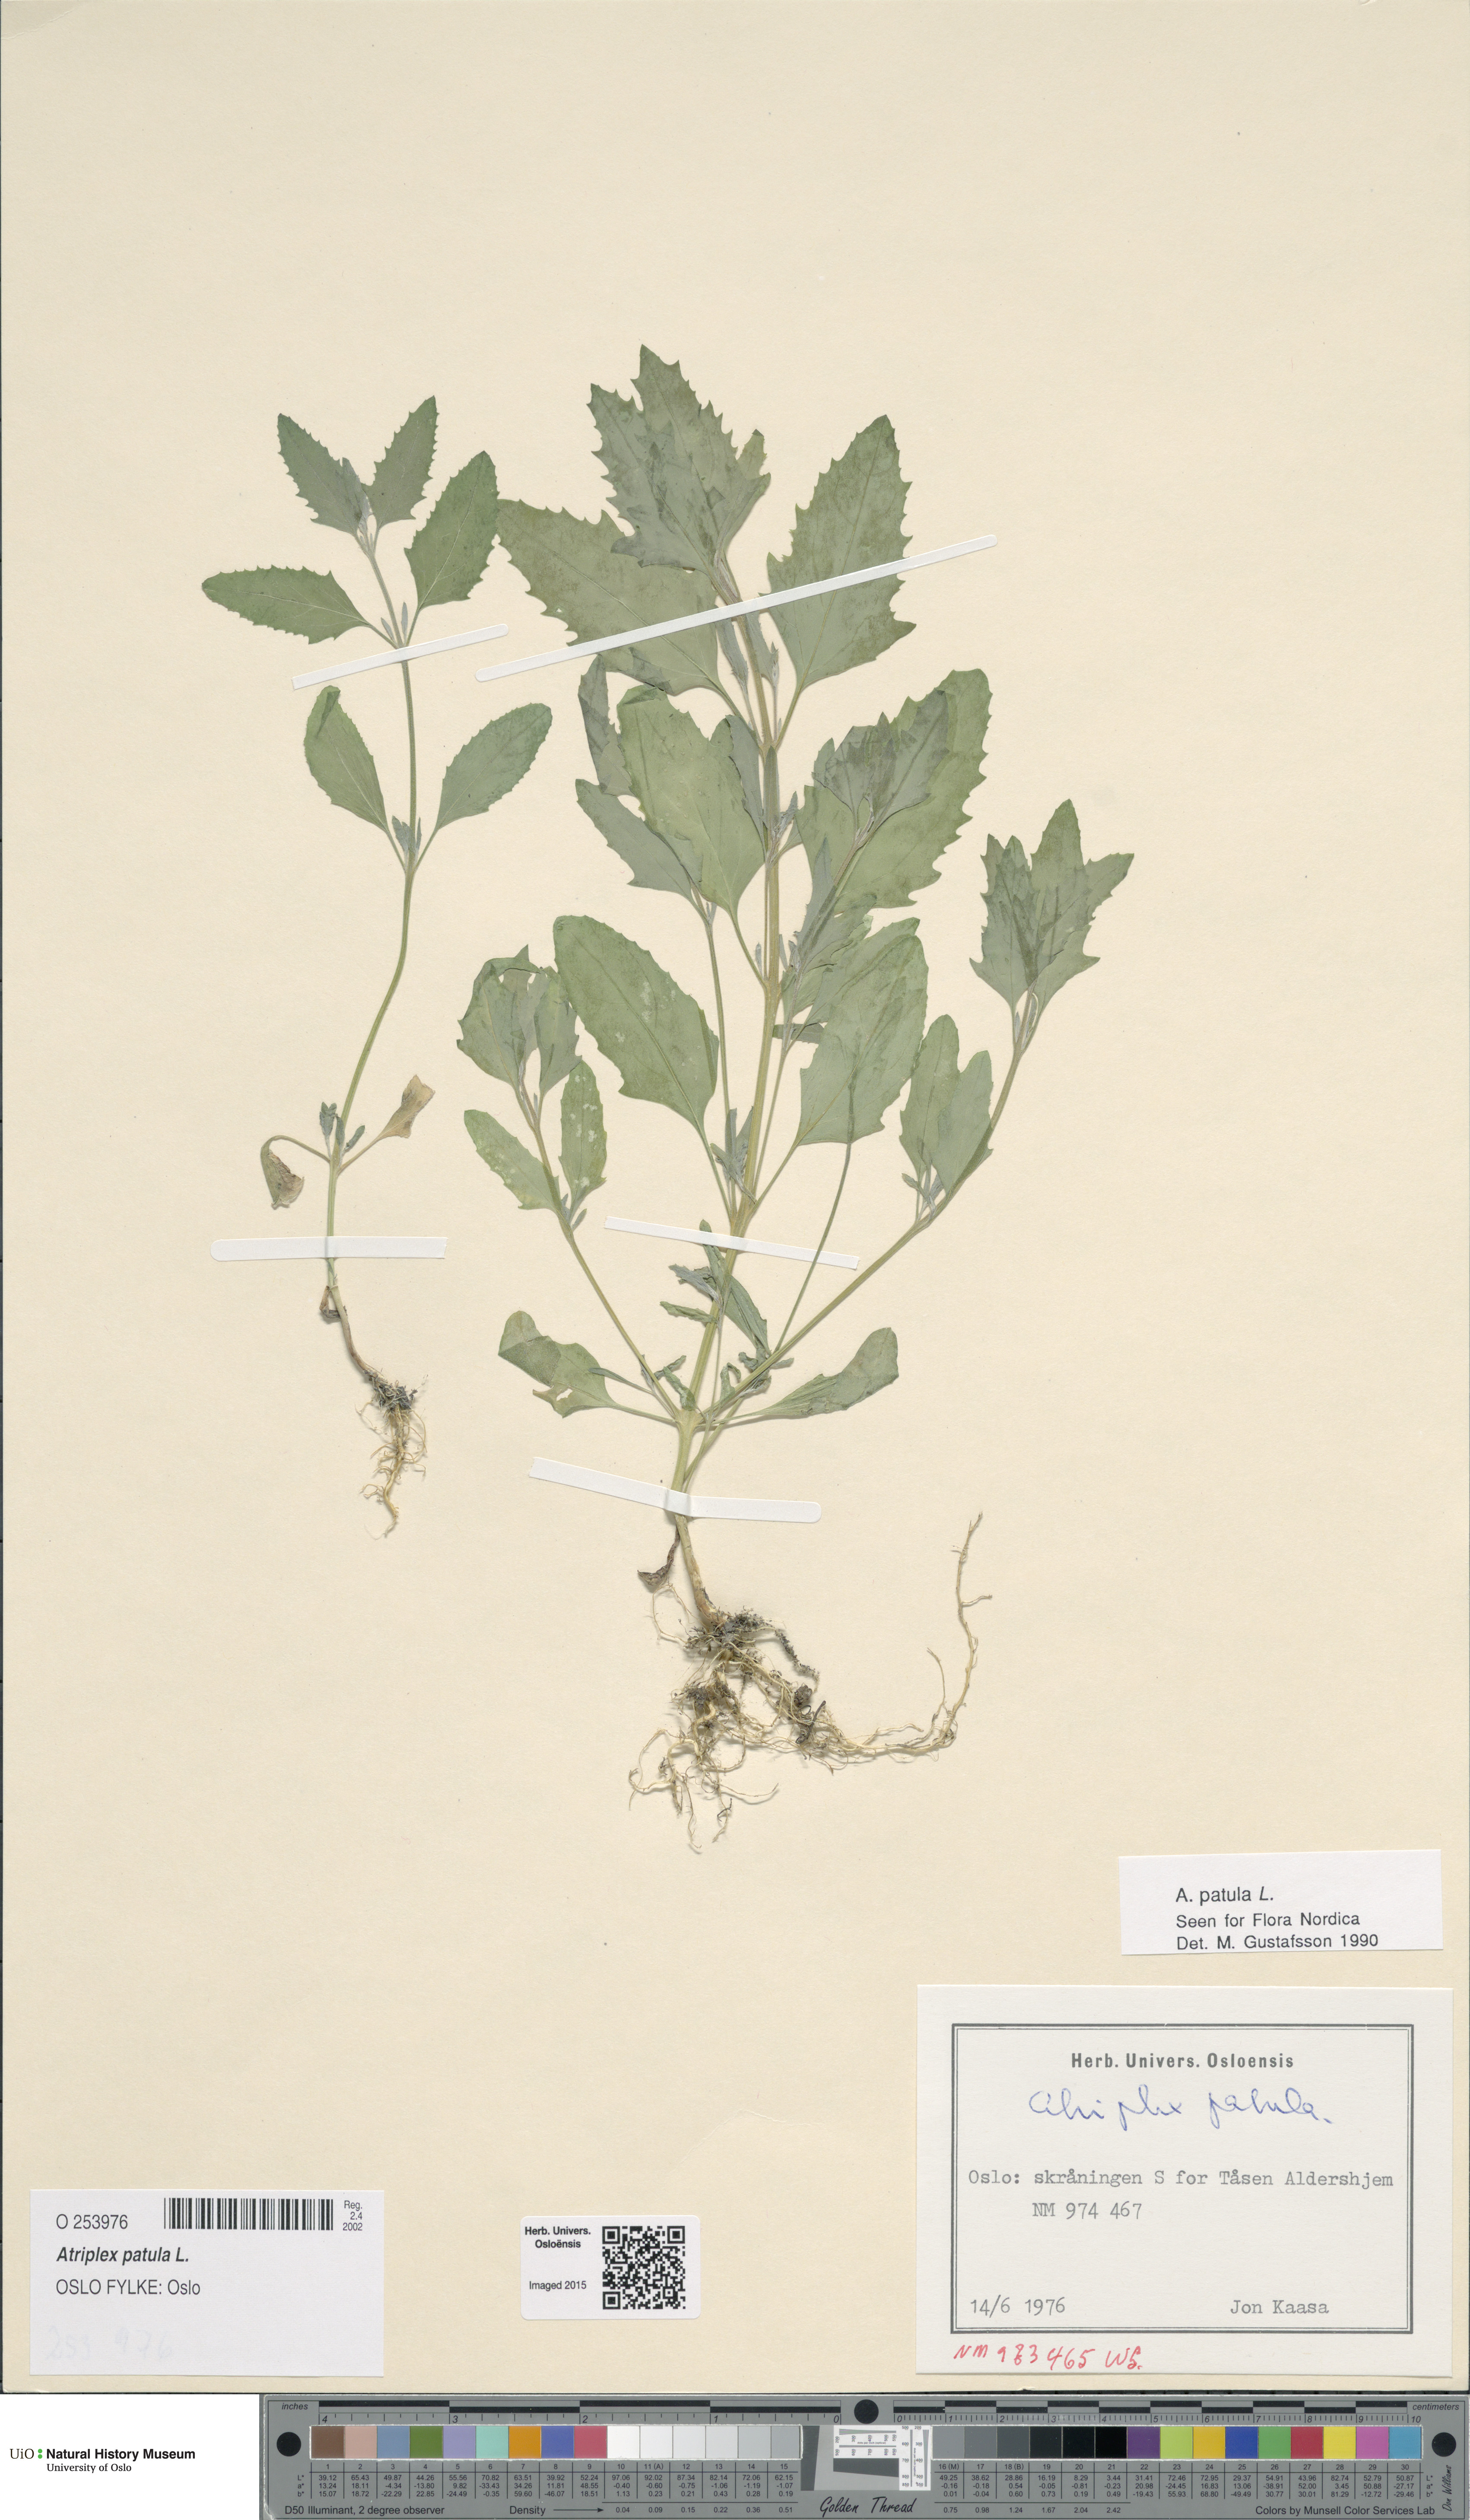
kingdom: Plantae
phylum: Tracheophyta
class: Magnoliopsida
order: Caryophyllales
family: Amaranthaceae
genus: Atriplex
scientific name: Atriplex patula
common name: Common orache
